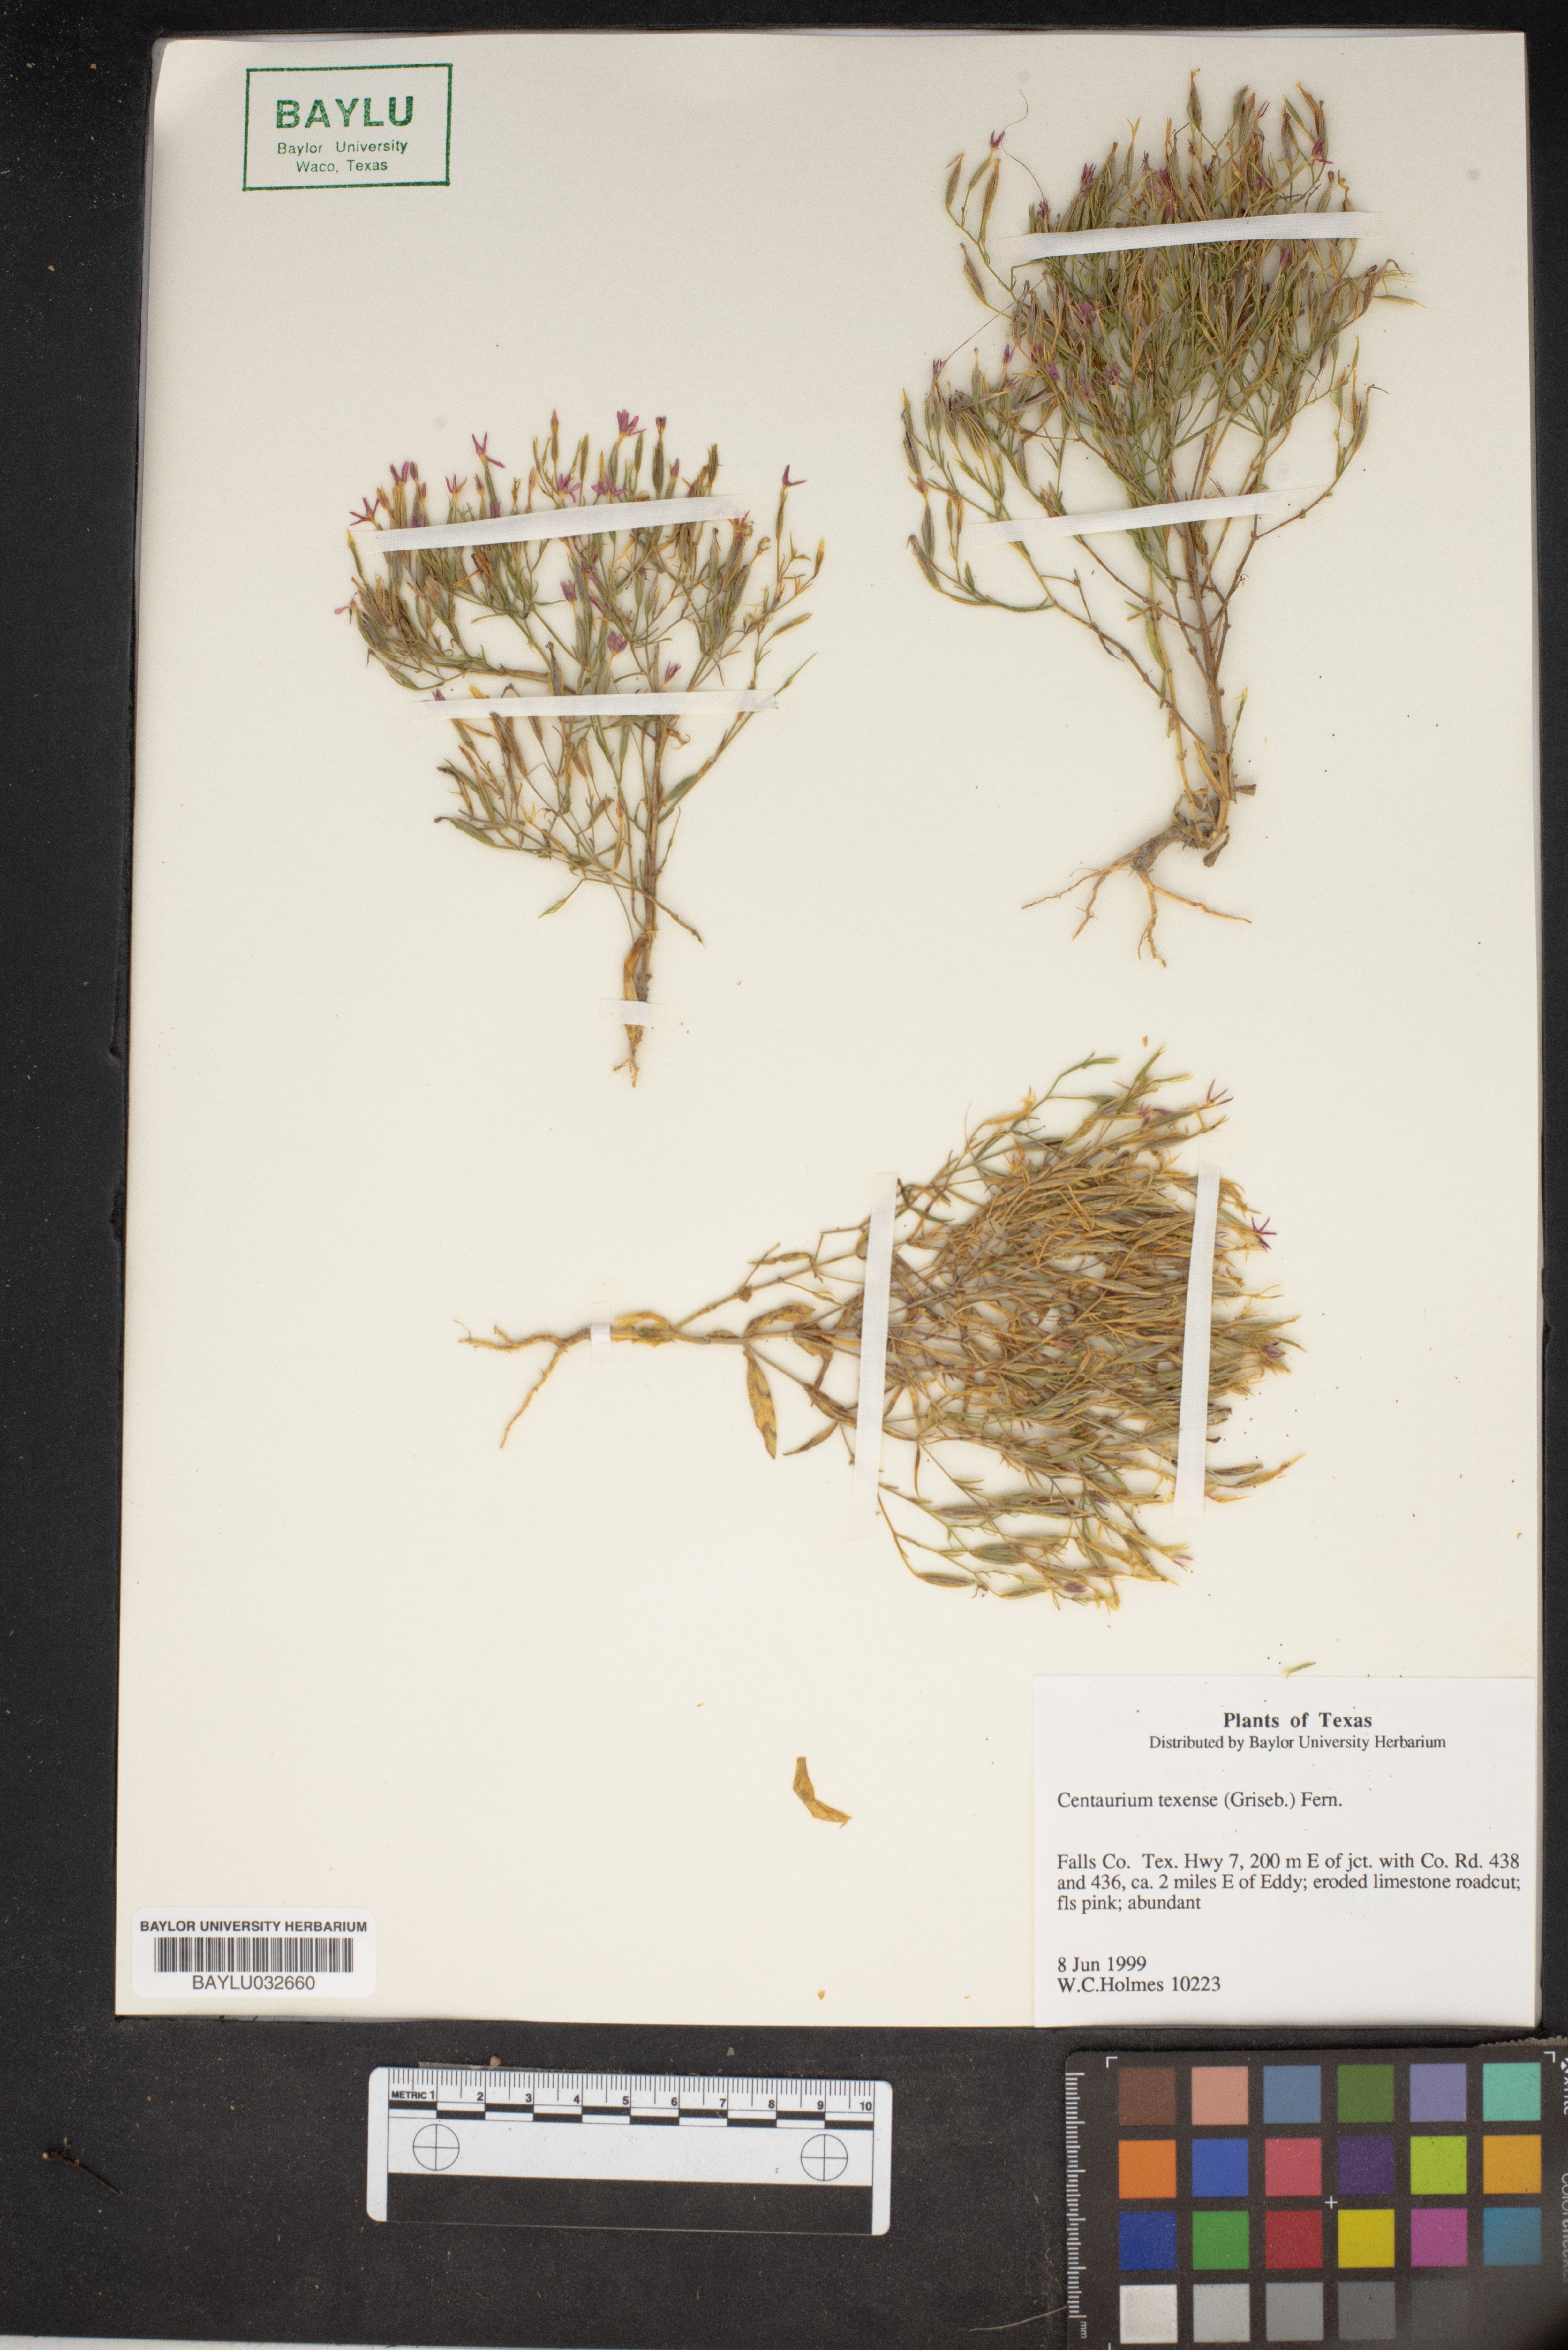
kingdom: Plantae
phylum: Tracheophyta
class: Magnoliopsida
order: Gentianales
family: Gentianaceae
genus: Zeltnera
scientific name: Zeltnera texensis
